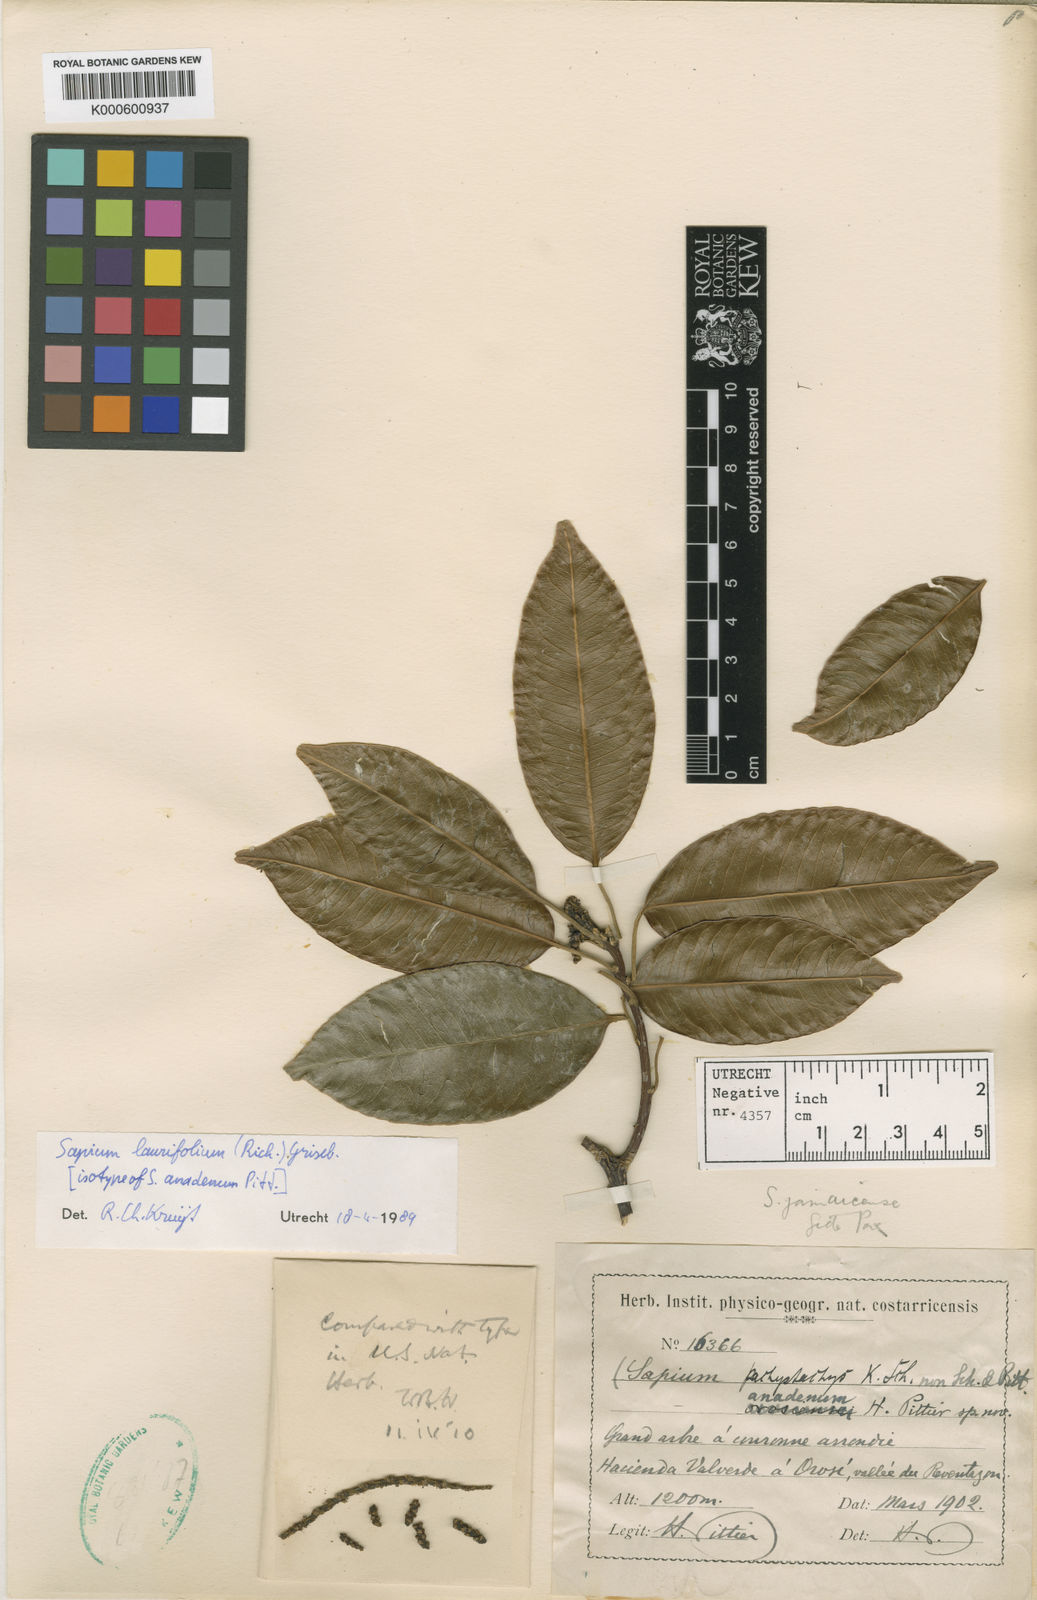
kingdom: Plantae
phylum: Tracheophyta
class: Magnoliopsida
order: Malpighiales
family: Euphorbiaceae
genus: Sapium
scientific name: Sapium glandulosum
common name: Milktree
